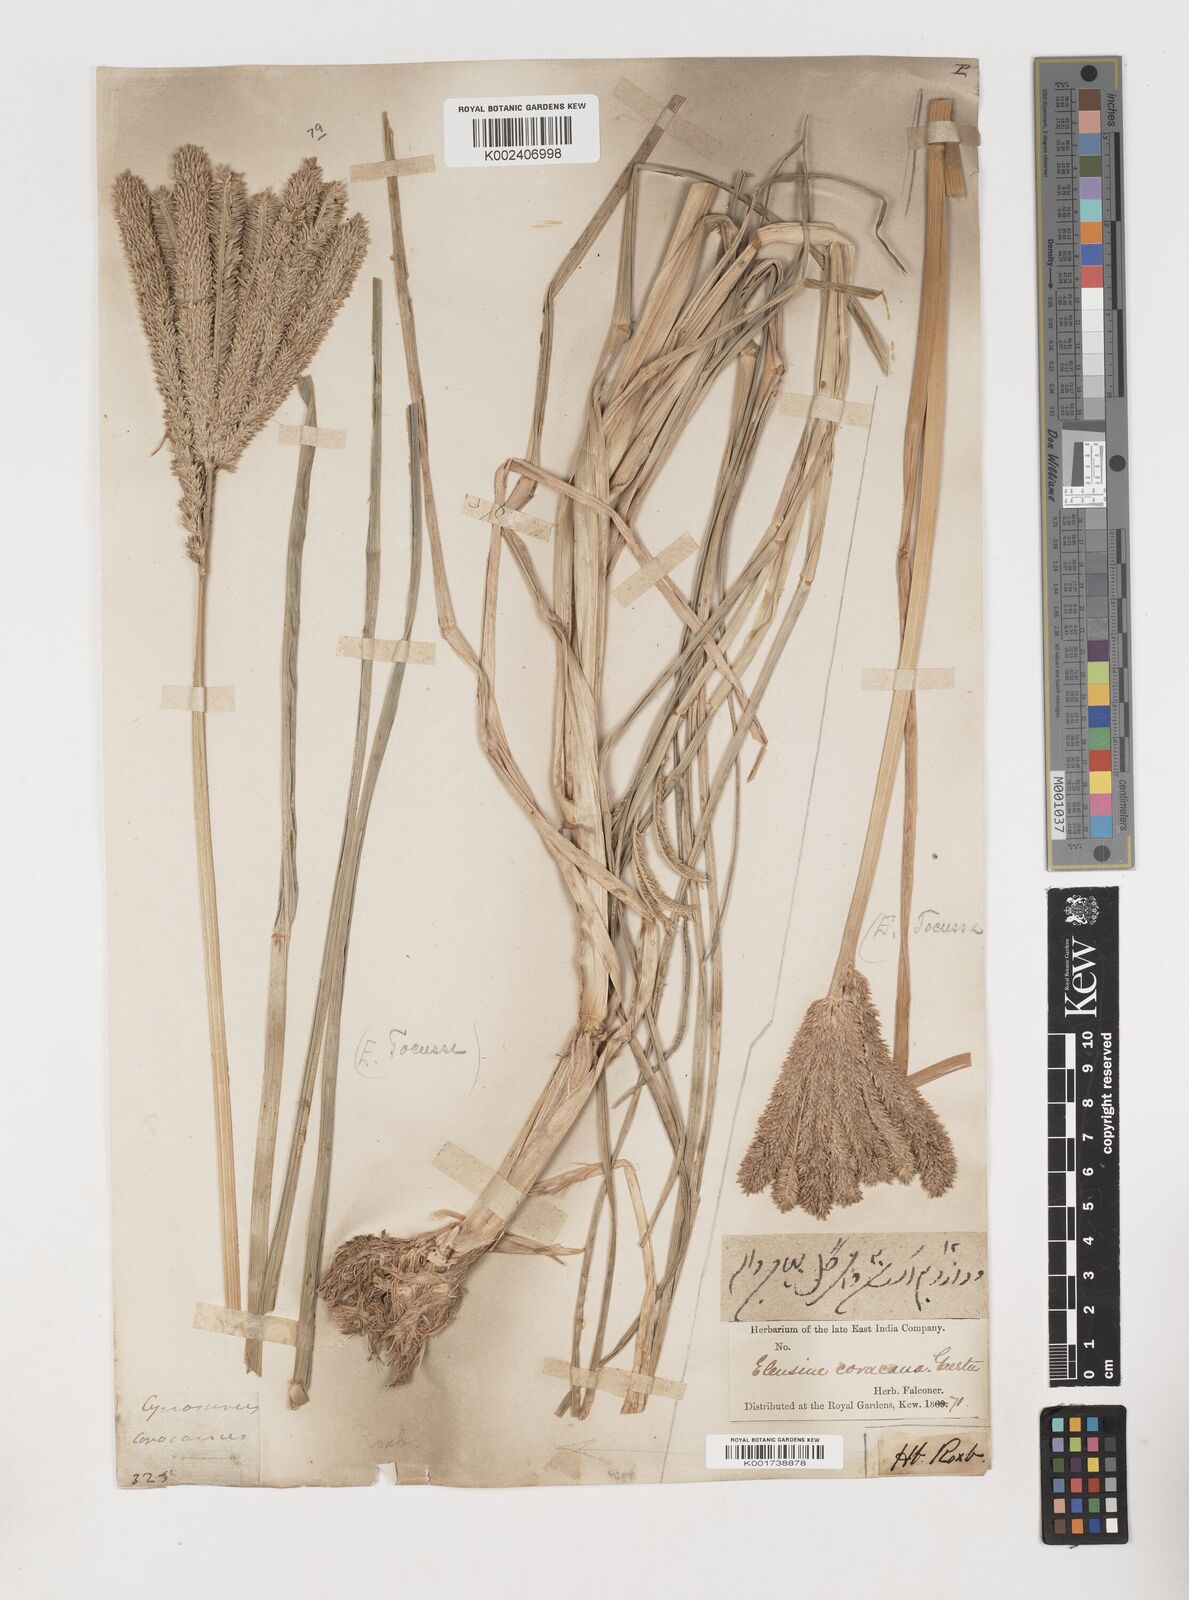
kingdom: Plantae
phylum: Tracheophyta
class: Liliopsida
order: Poales
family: Poaceae
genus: Eleusine
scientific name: Eleusine coracana
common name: Finger millet
